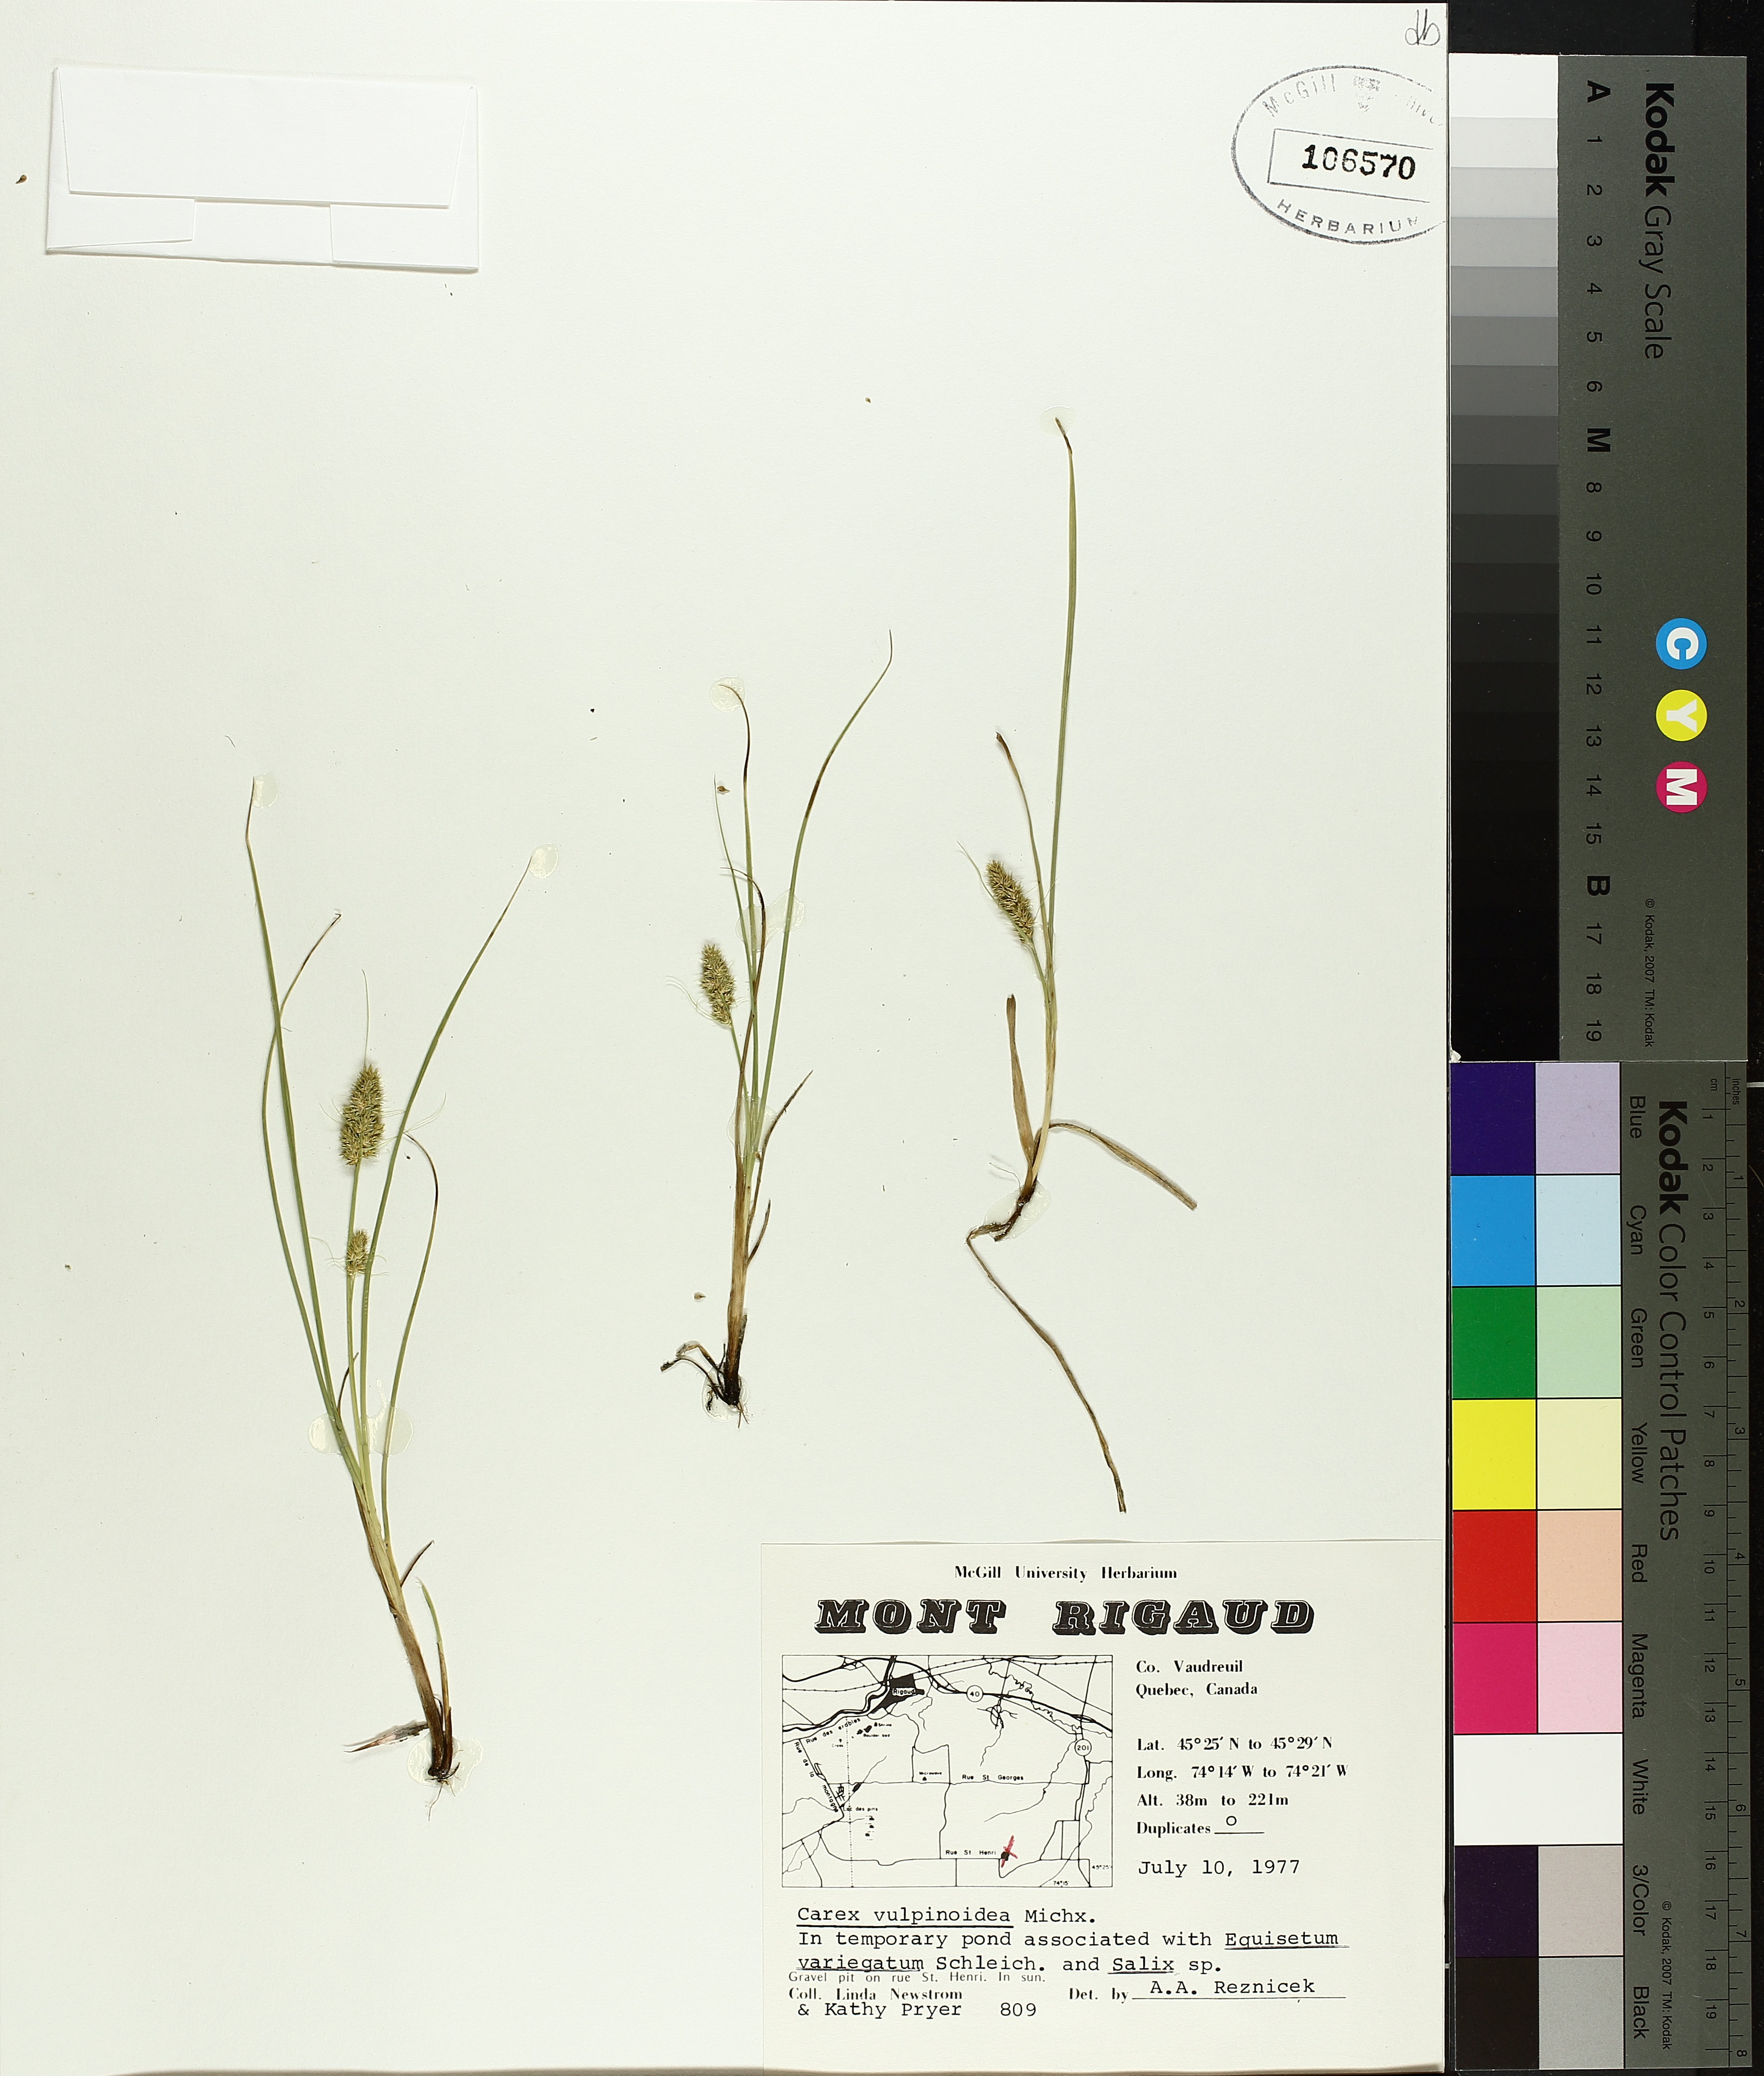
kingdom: Plantae
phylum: Tracheophyta
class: Liliopsida
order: Poales
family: Cyperaceae
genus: Carex
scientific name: Carex vulpinoidea
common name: American fox-sedge
